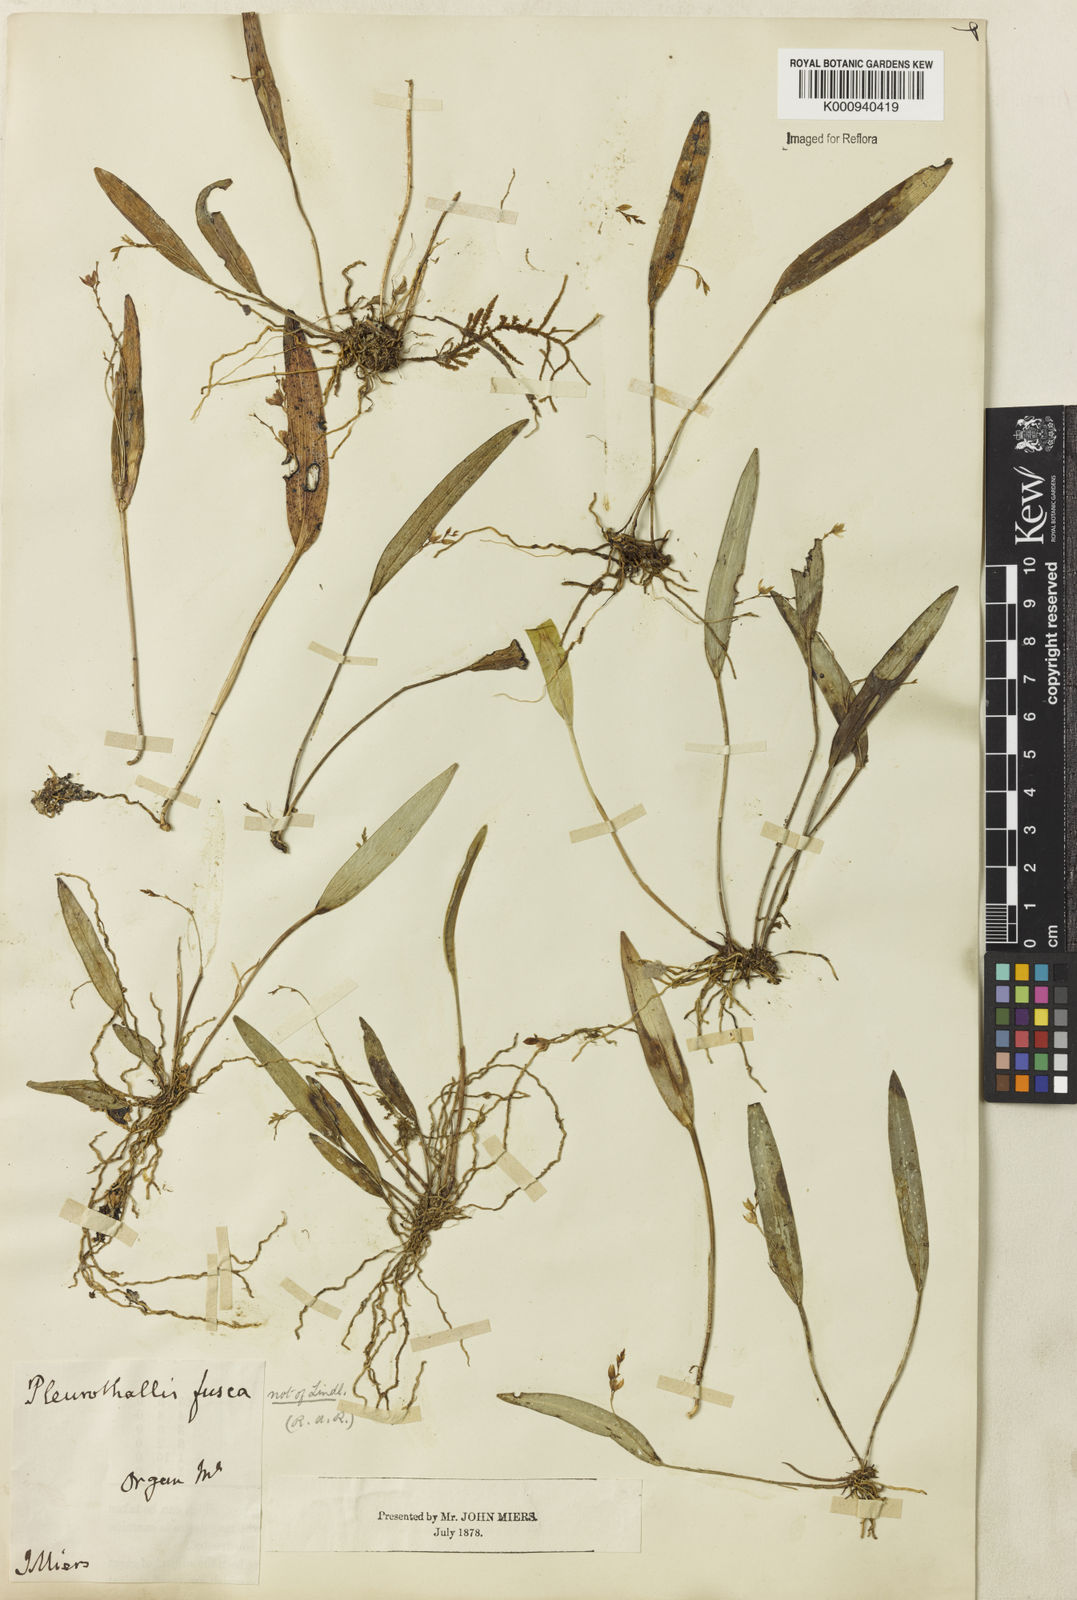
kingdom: Plantae
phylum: Tracheophyta
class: Liliopsida
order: Asparagales
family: Orchidaceae
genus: Acianthera
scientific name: Acianthera capillaris
